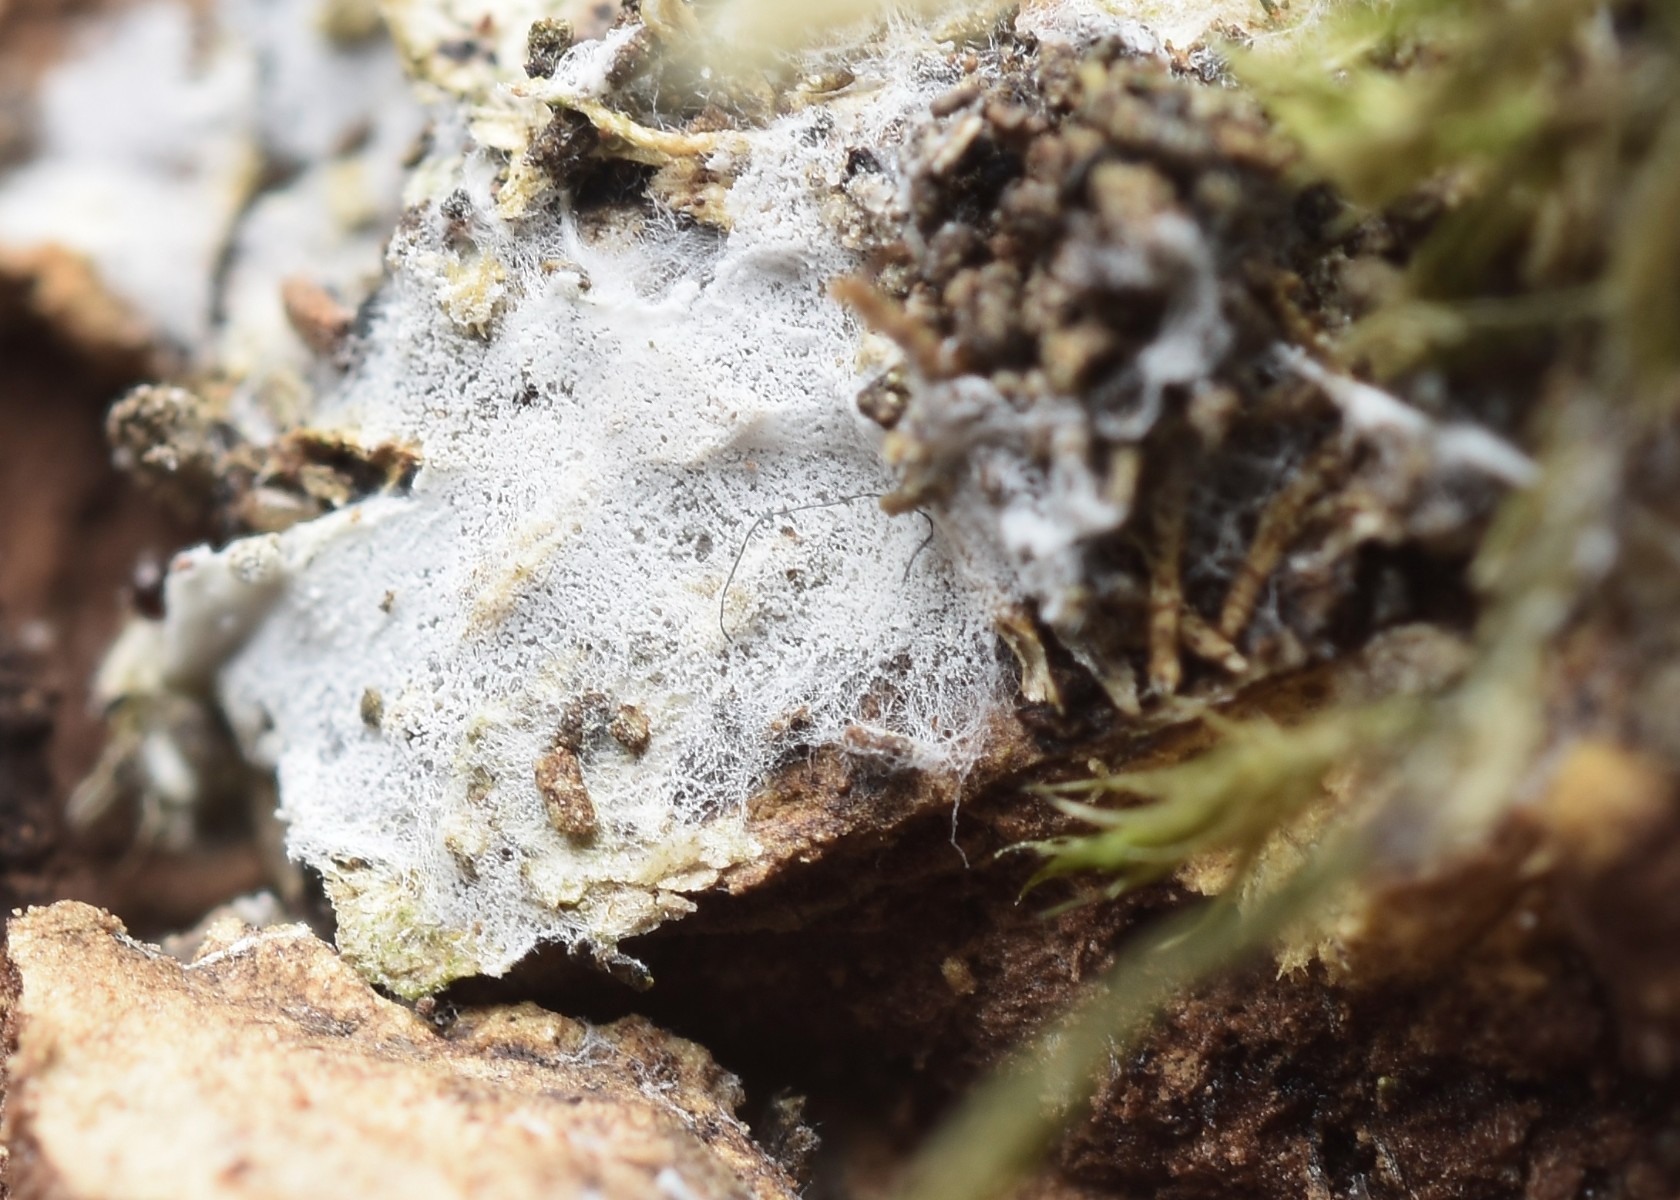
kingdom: Fungi
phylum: Basidiomycota
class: Agaricomycetes
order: Trechisporales
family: Sistotremataceae
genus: Trechispora
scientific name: Trechispora microspora
